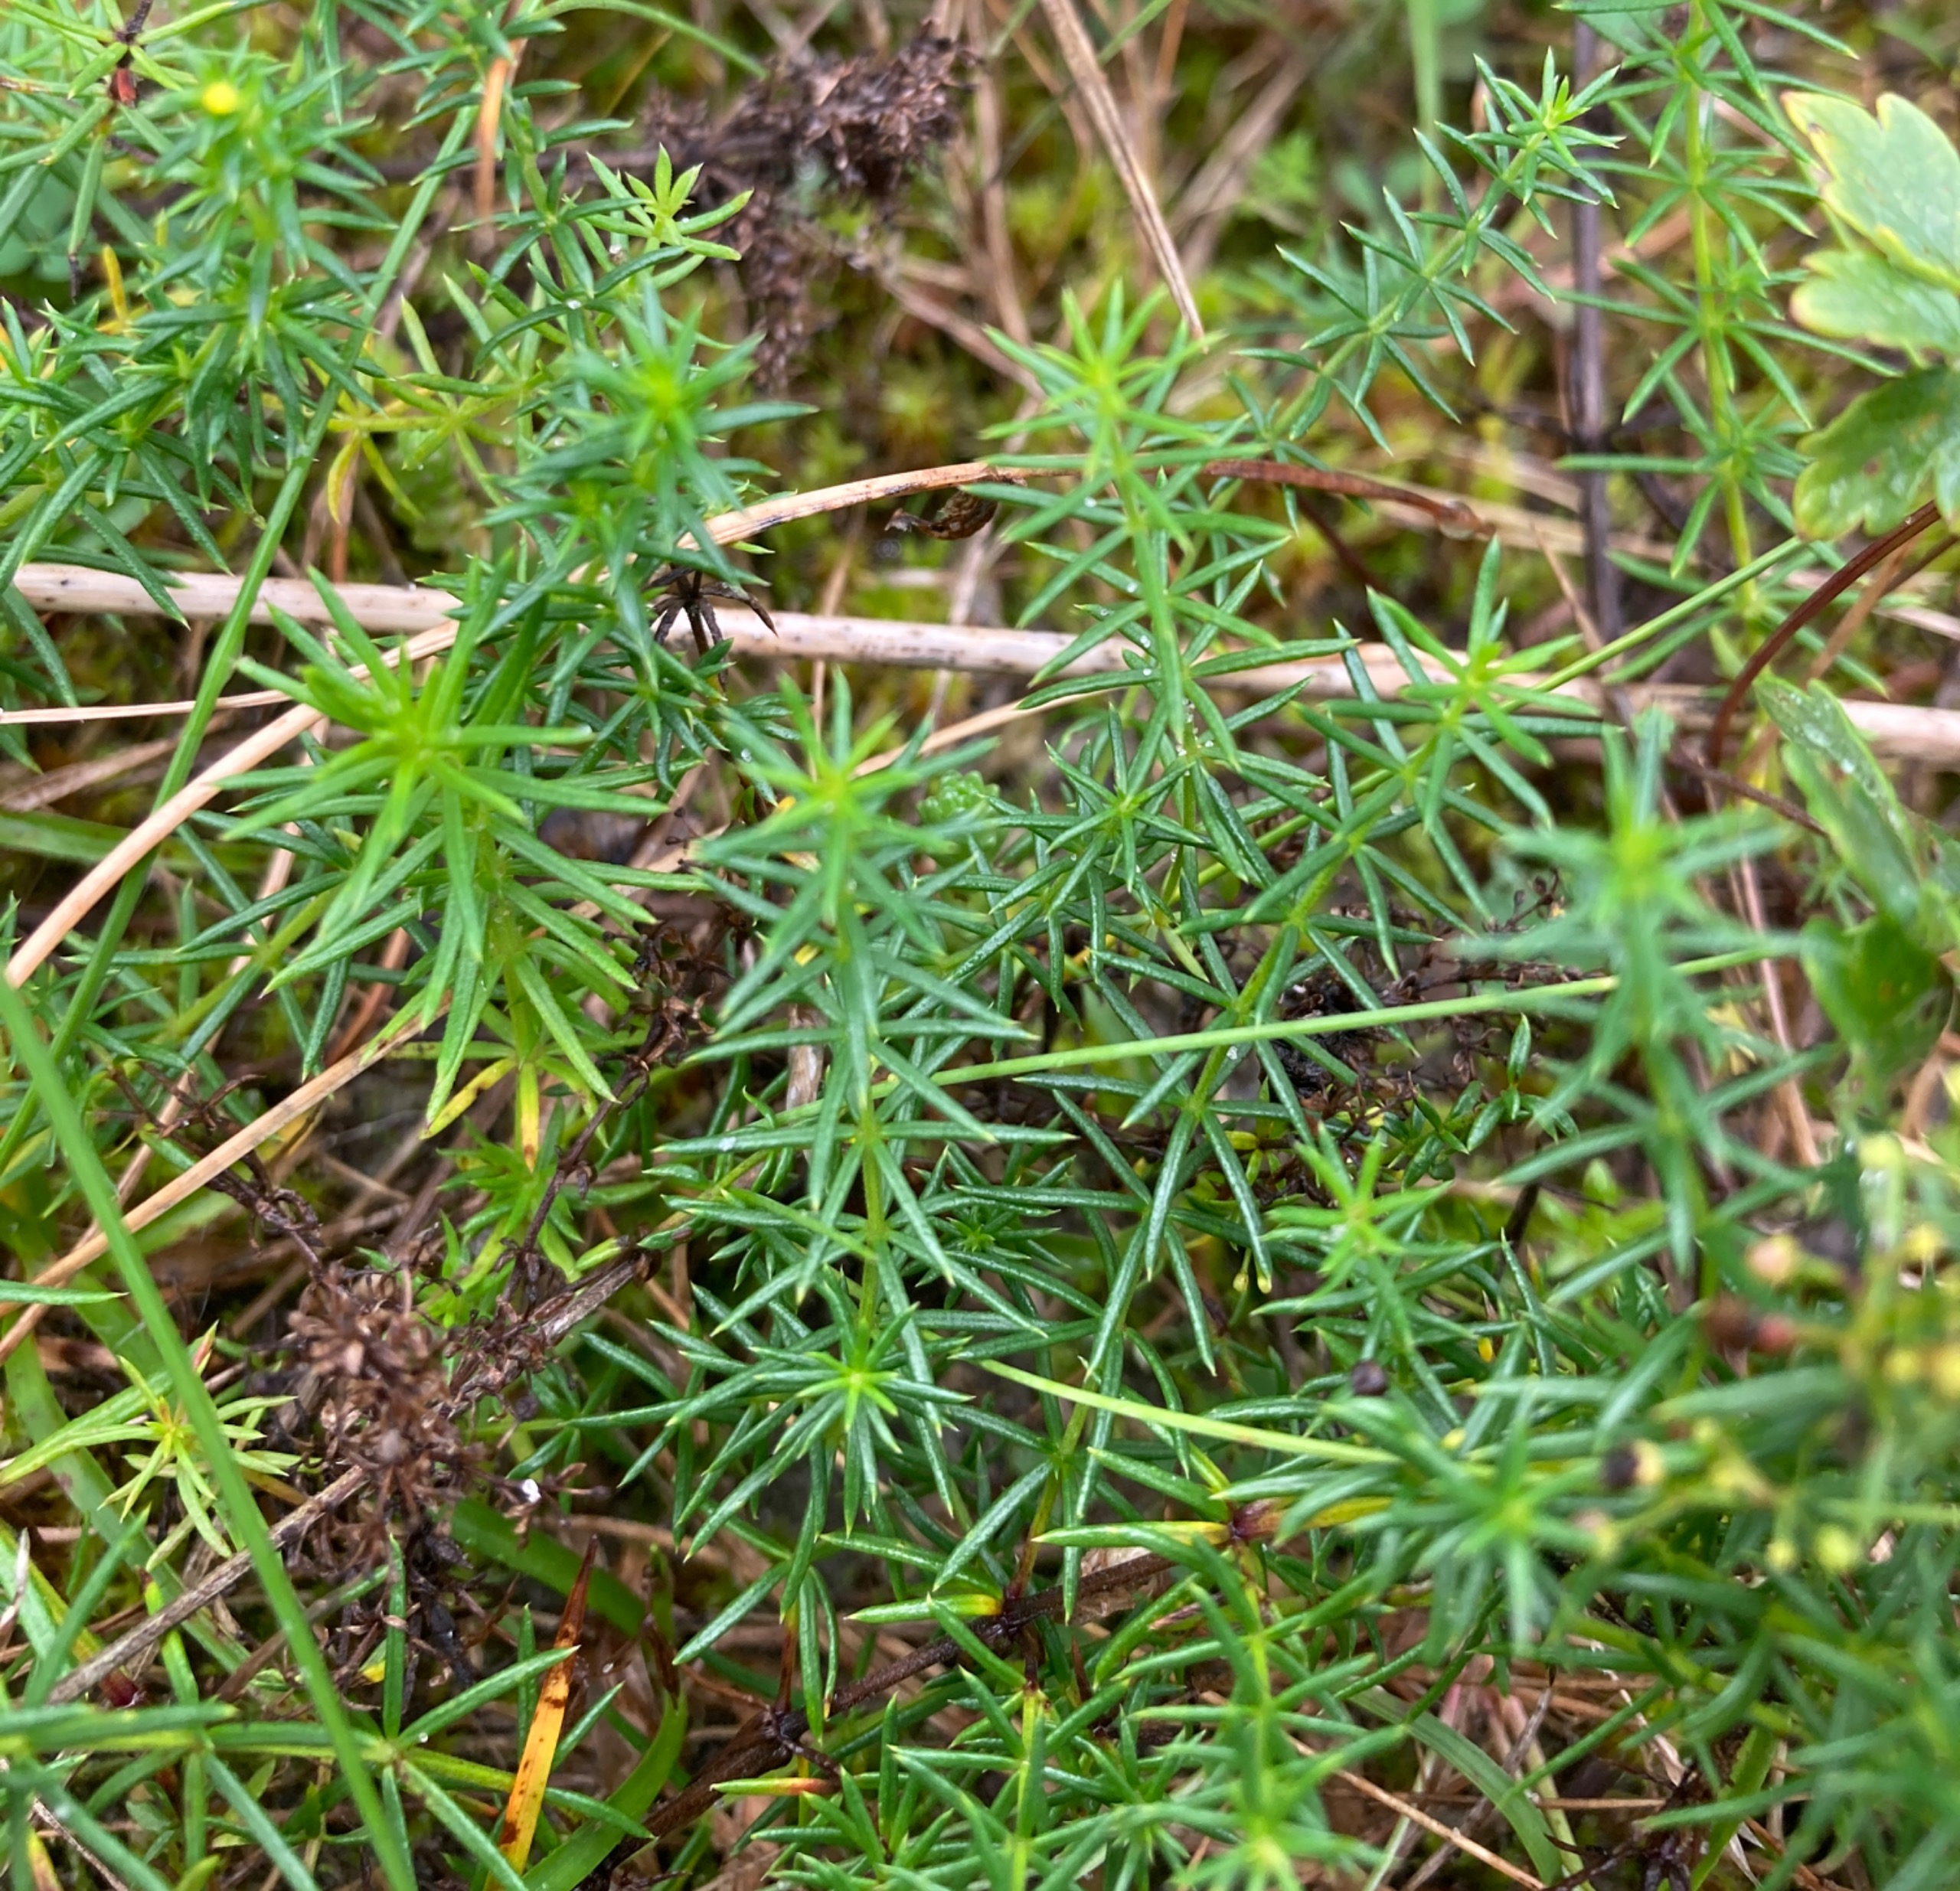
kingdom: Plantae
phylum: Tracheophyta
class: Magnoliopsida
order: Gentianales
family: Rubiaceae
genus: Galium
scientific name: Galium verum
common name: Gul snerre
